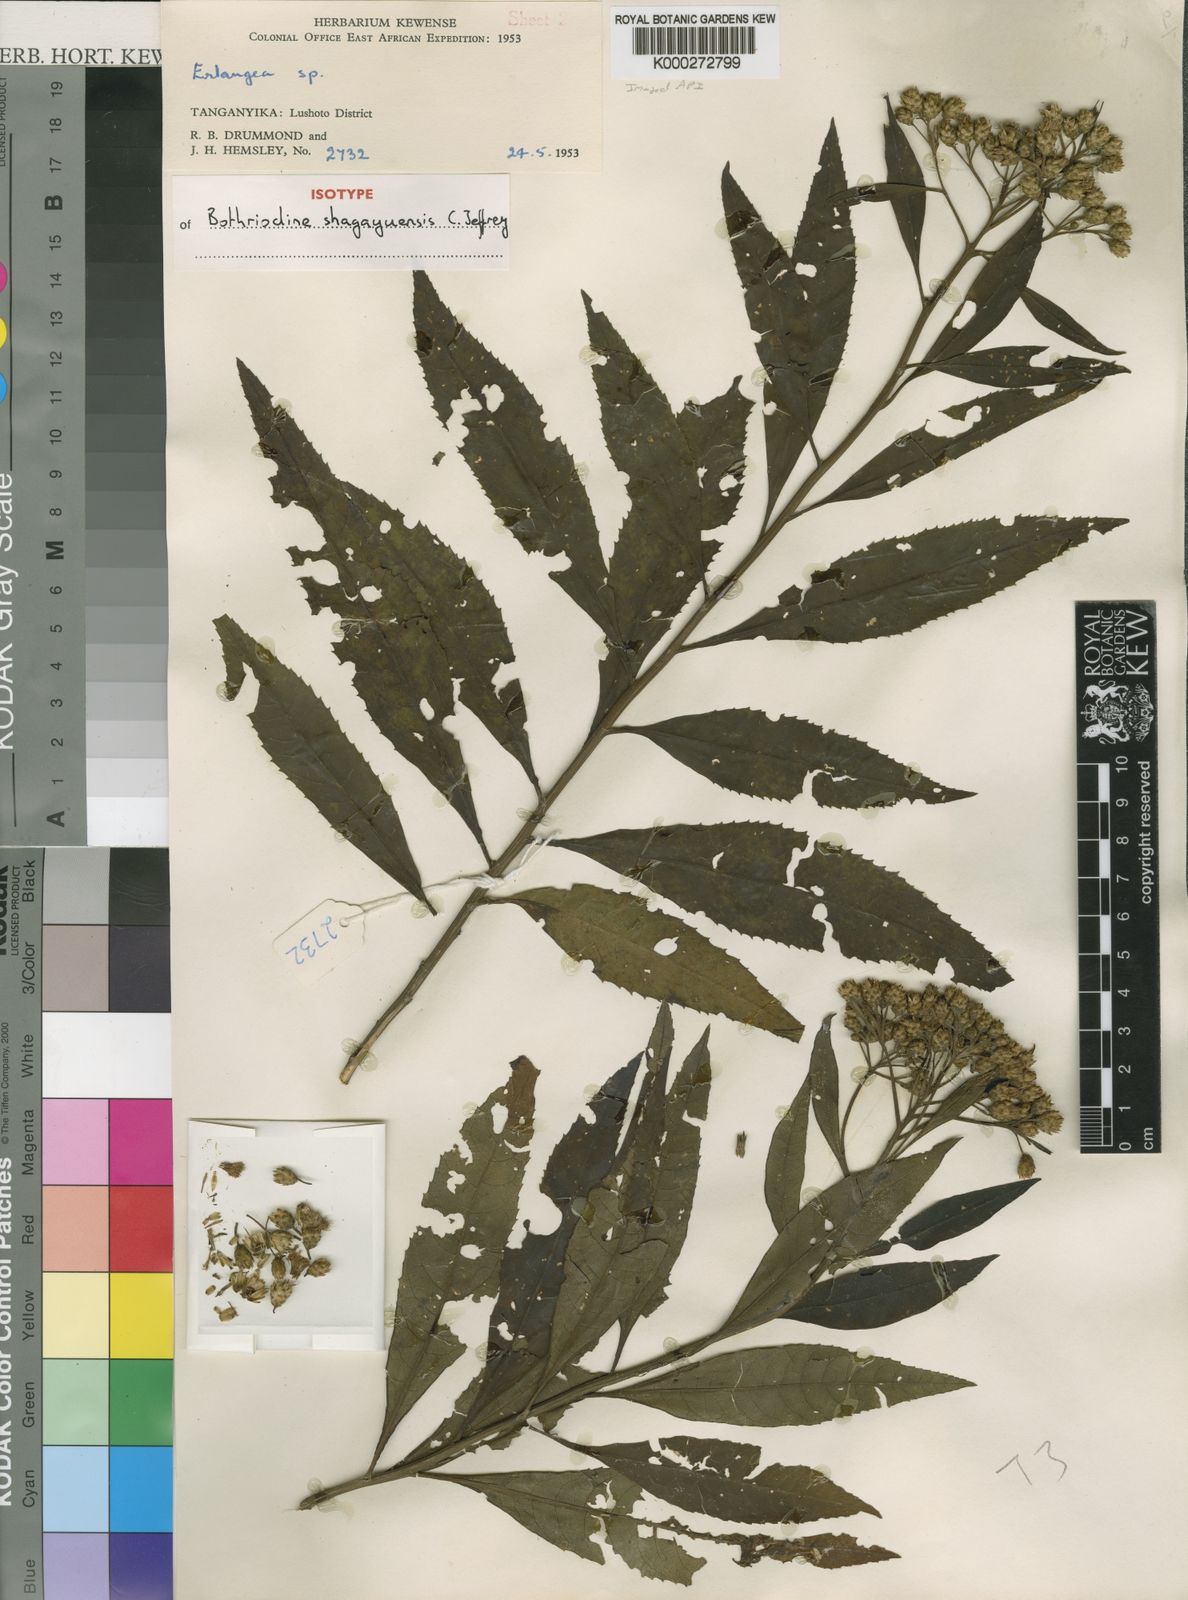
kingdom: Plantae
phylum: Tracheophyta
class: Magnoliopsida
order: Asterales
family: Asteraceae
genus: Bothriocline
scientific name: Bothriocline shagayuensis
